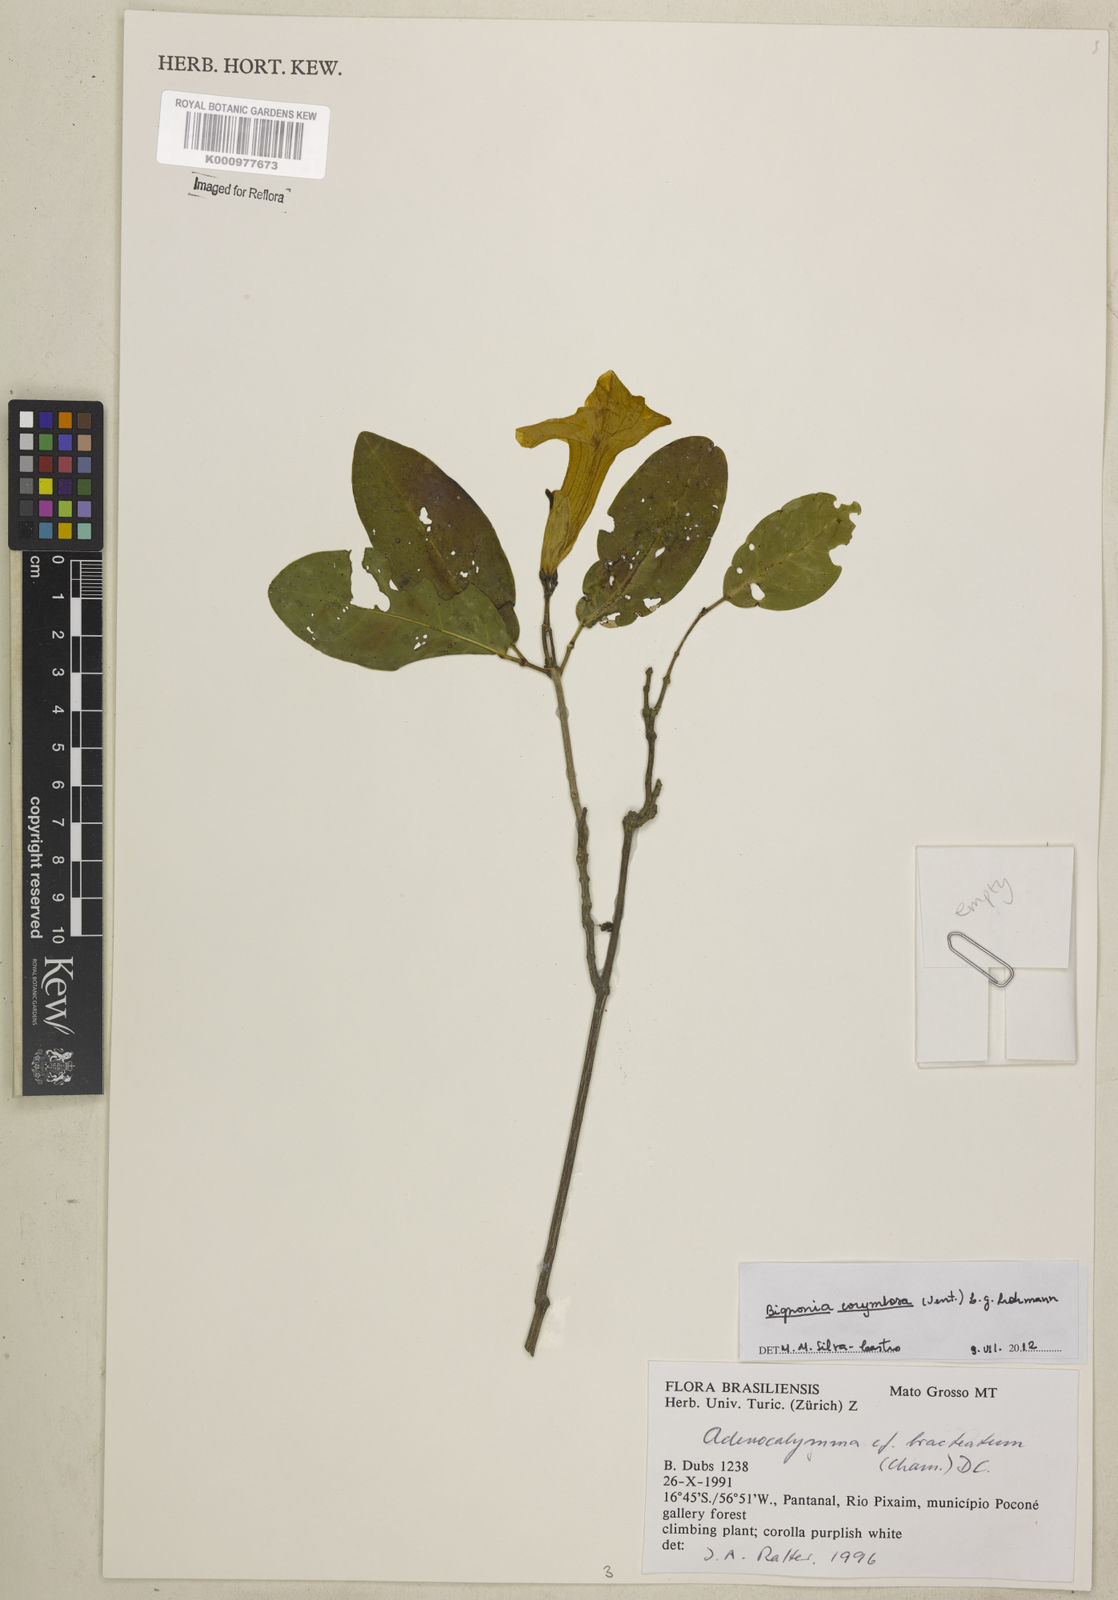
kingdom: Plantae
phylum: Tracheophyta
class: Magnoliopsida
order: Lamiales
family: Bignoniaceae
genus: Bignonia
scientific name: Bignonia
